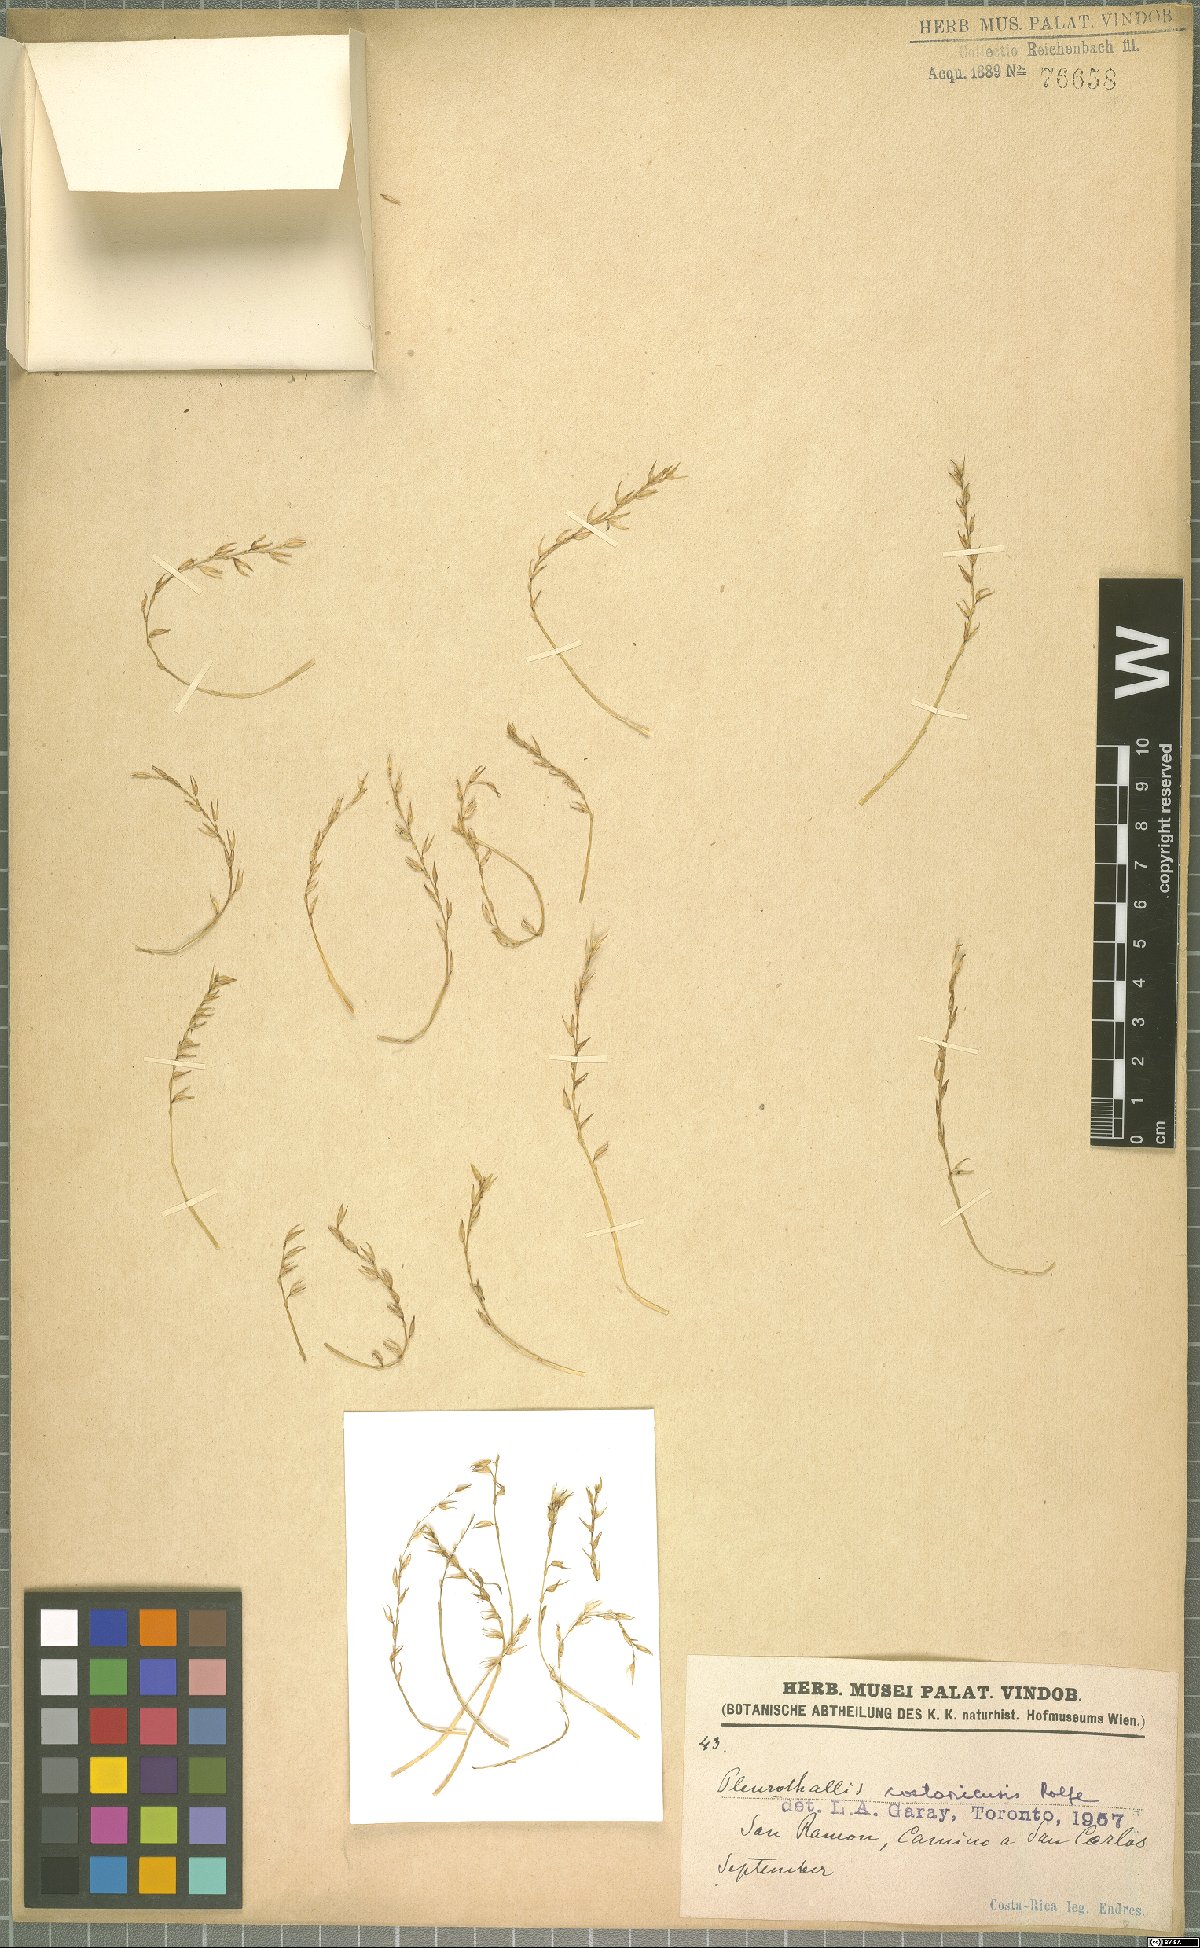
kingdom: Plantae
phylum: Tracheophyta
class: Liliopsida
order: Asparagales
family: Orchidaceae
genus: Specklinia
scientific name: Specklinia costaricensis
